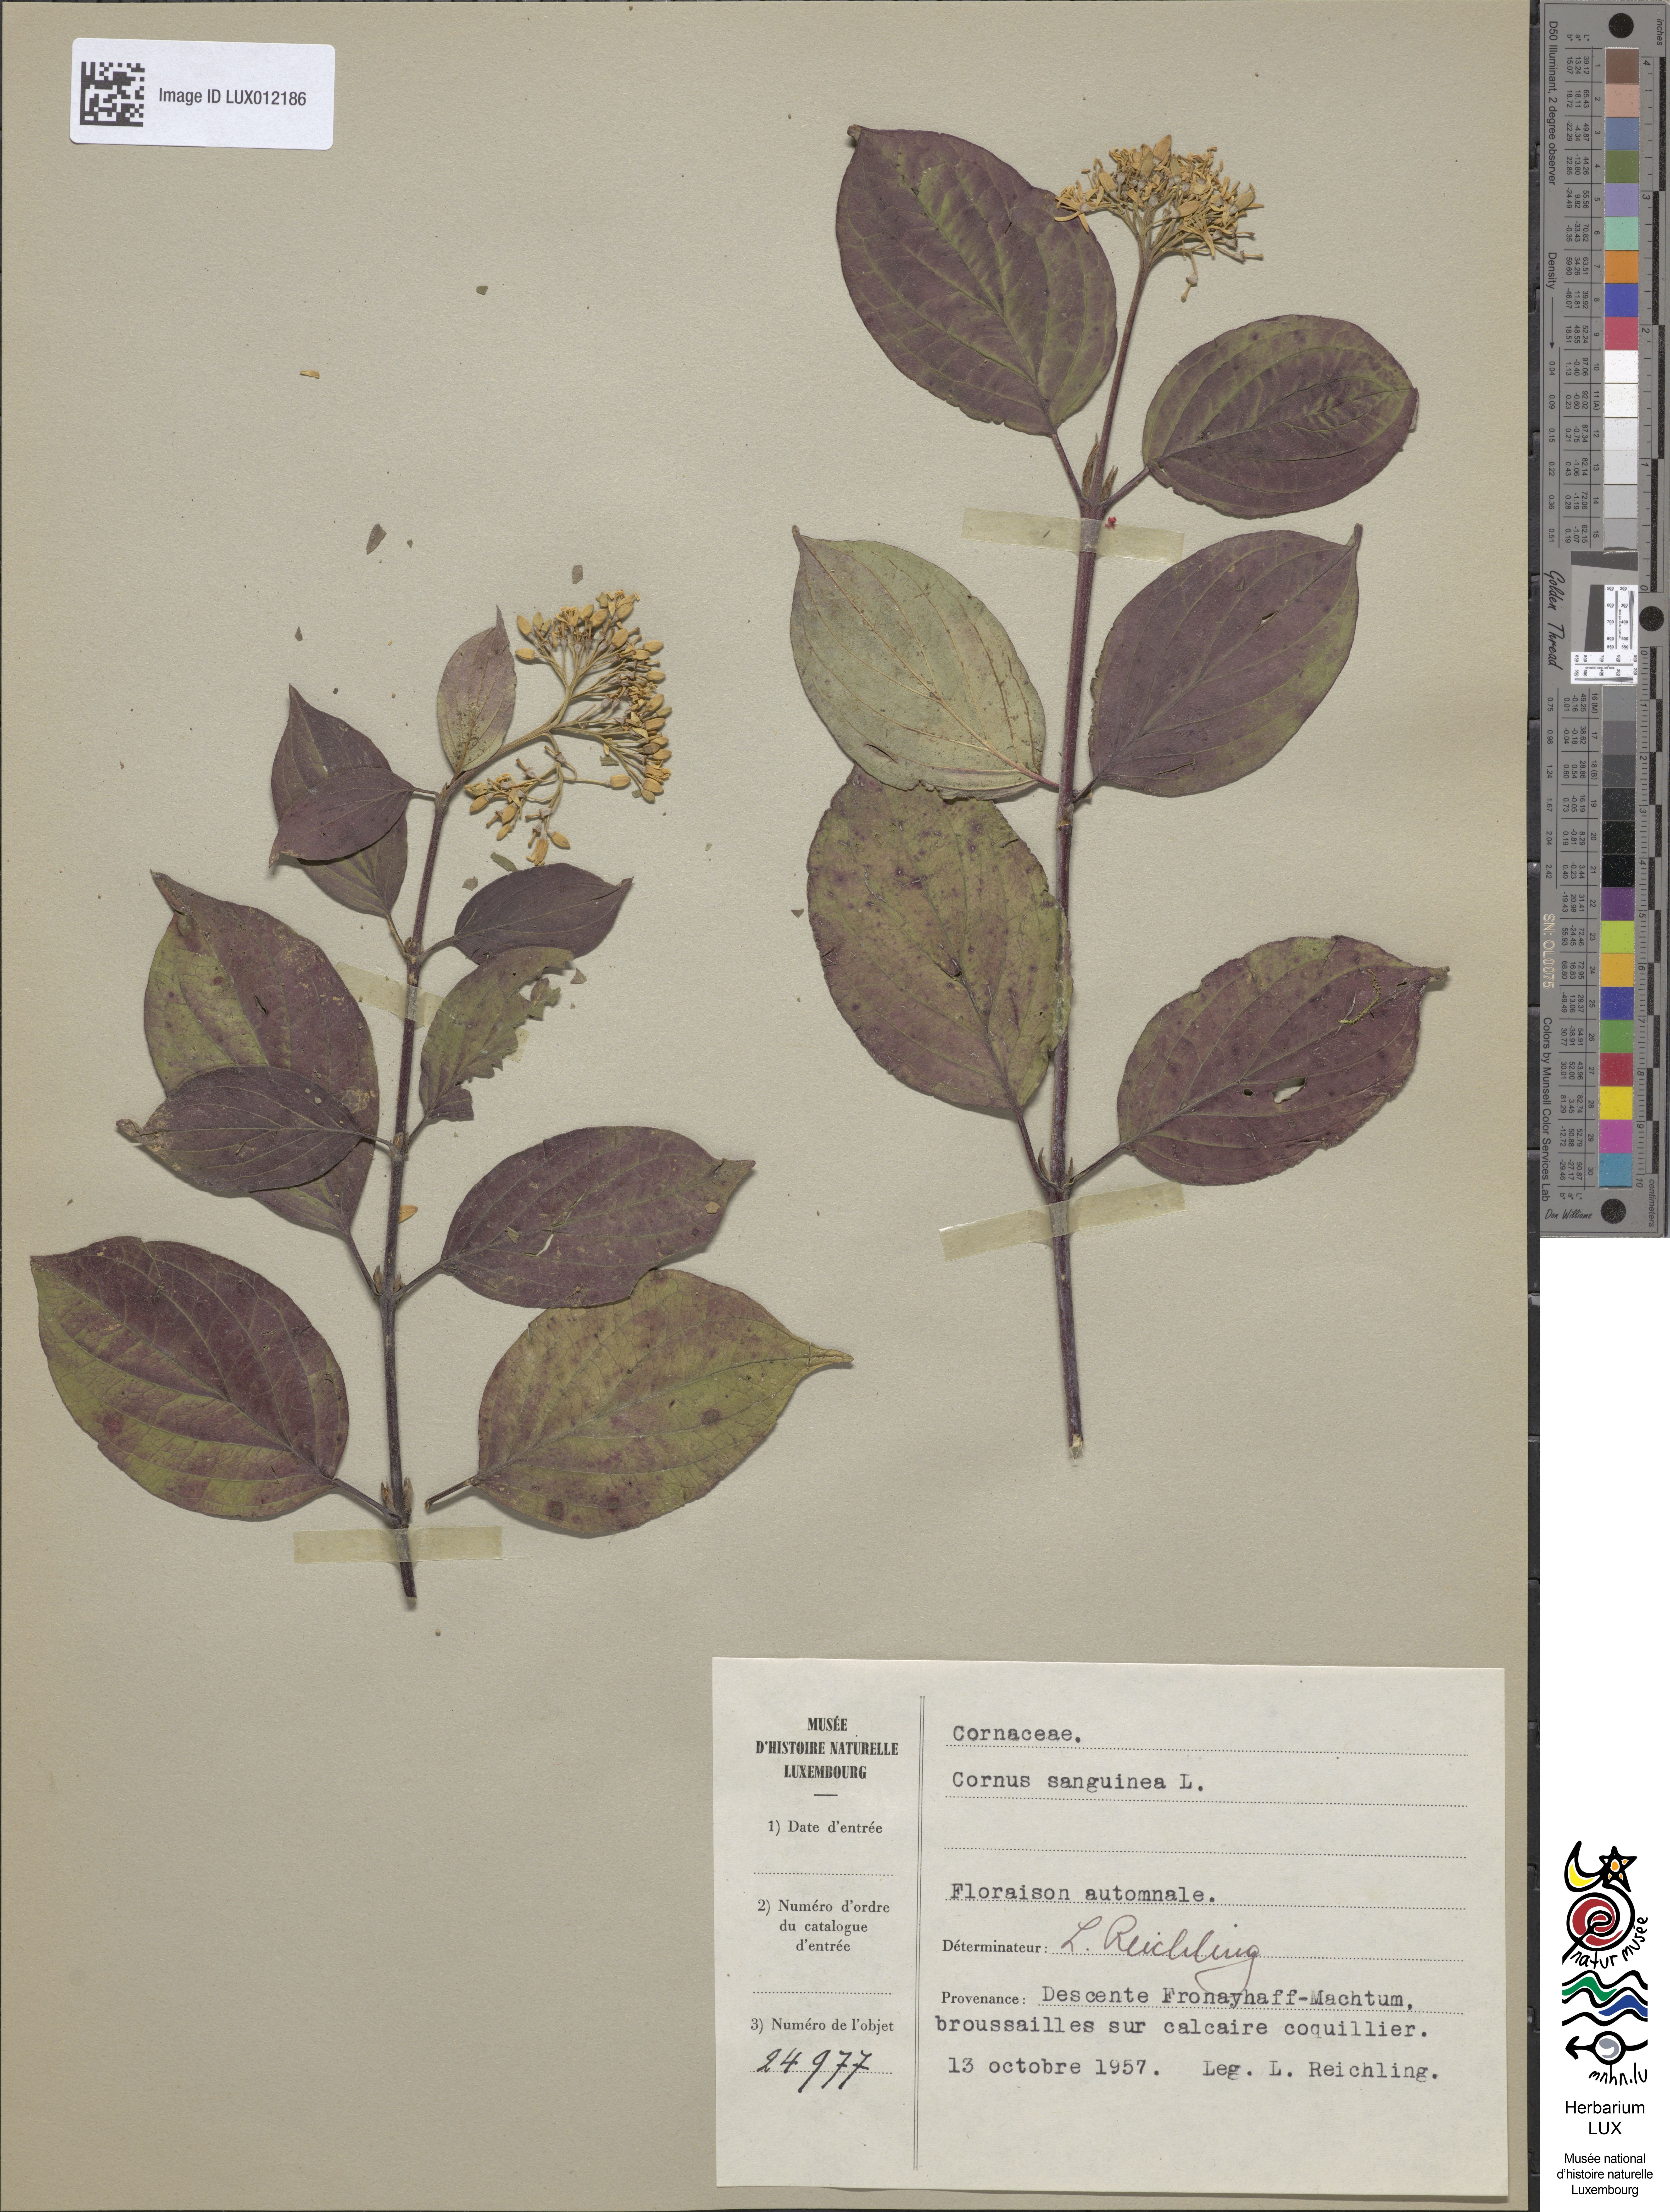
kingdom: Plantae
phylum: Tracheophyta
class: Magnoliopsida
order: Cornales
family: Cornaceae
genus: Cornus
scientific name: Cornus sanguinea
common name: Dogwood
